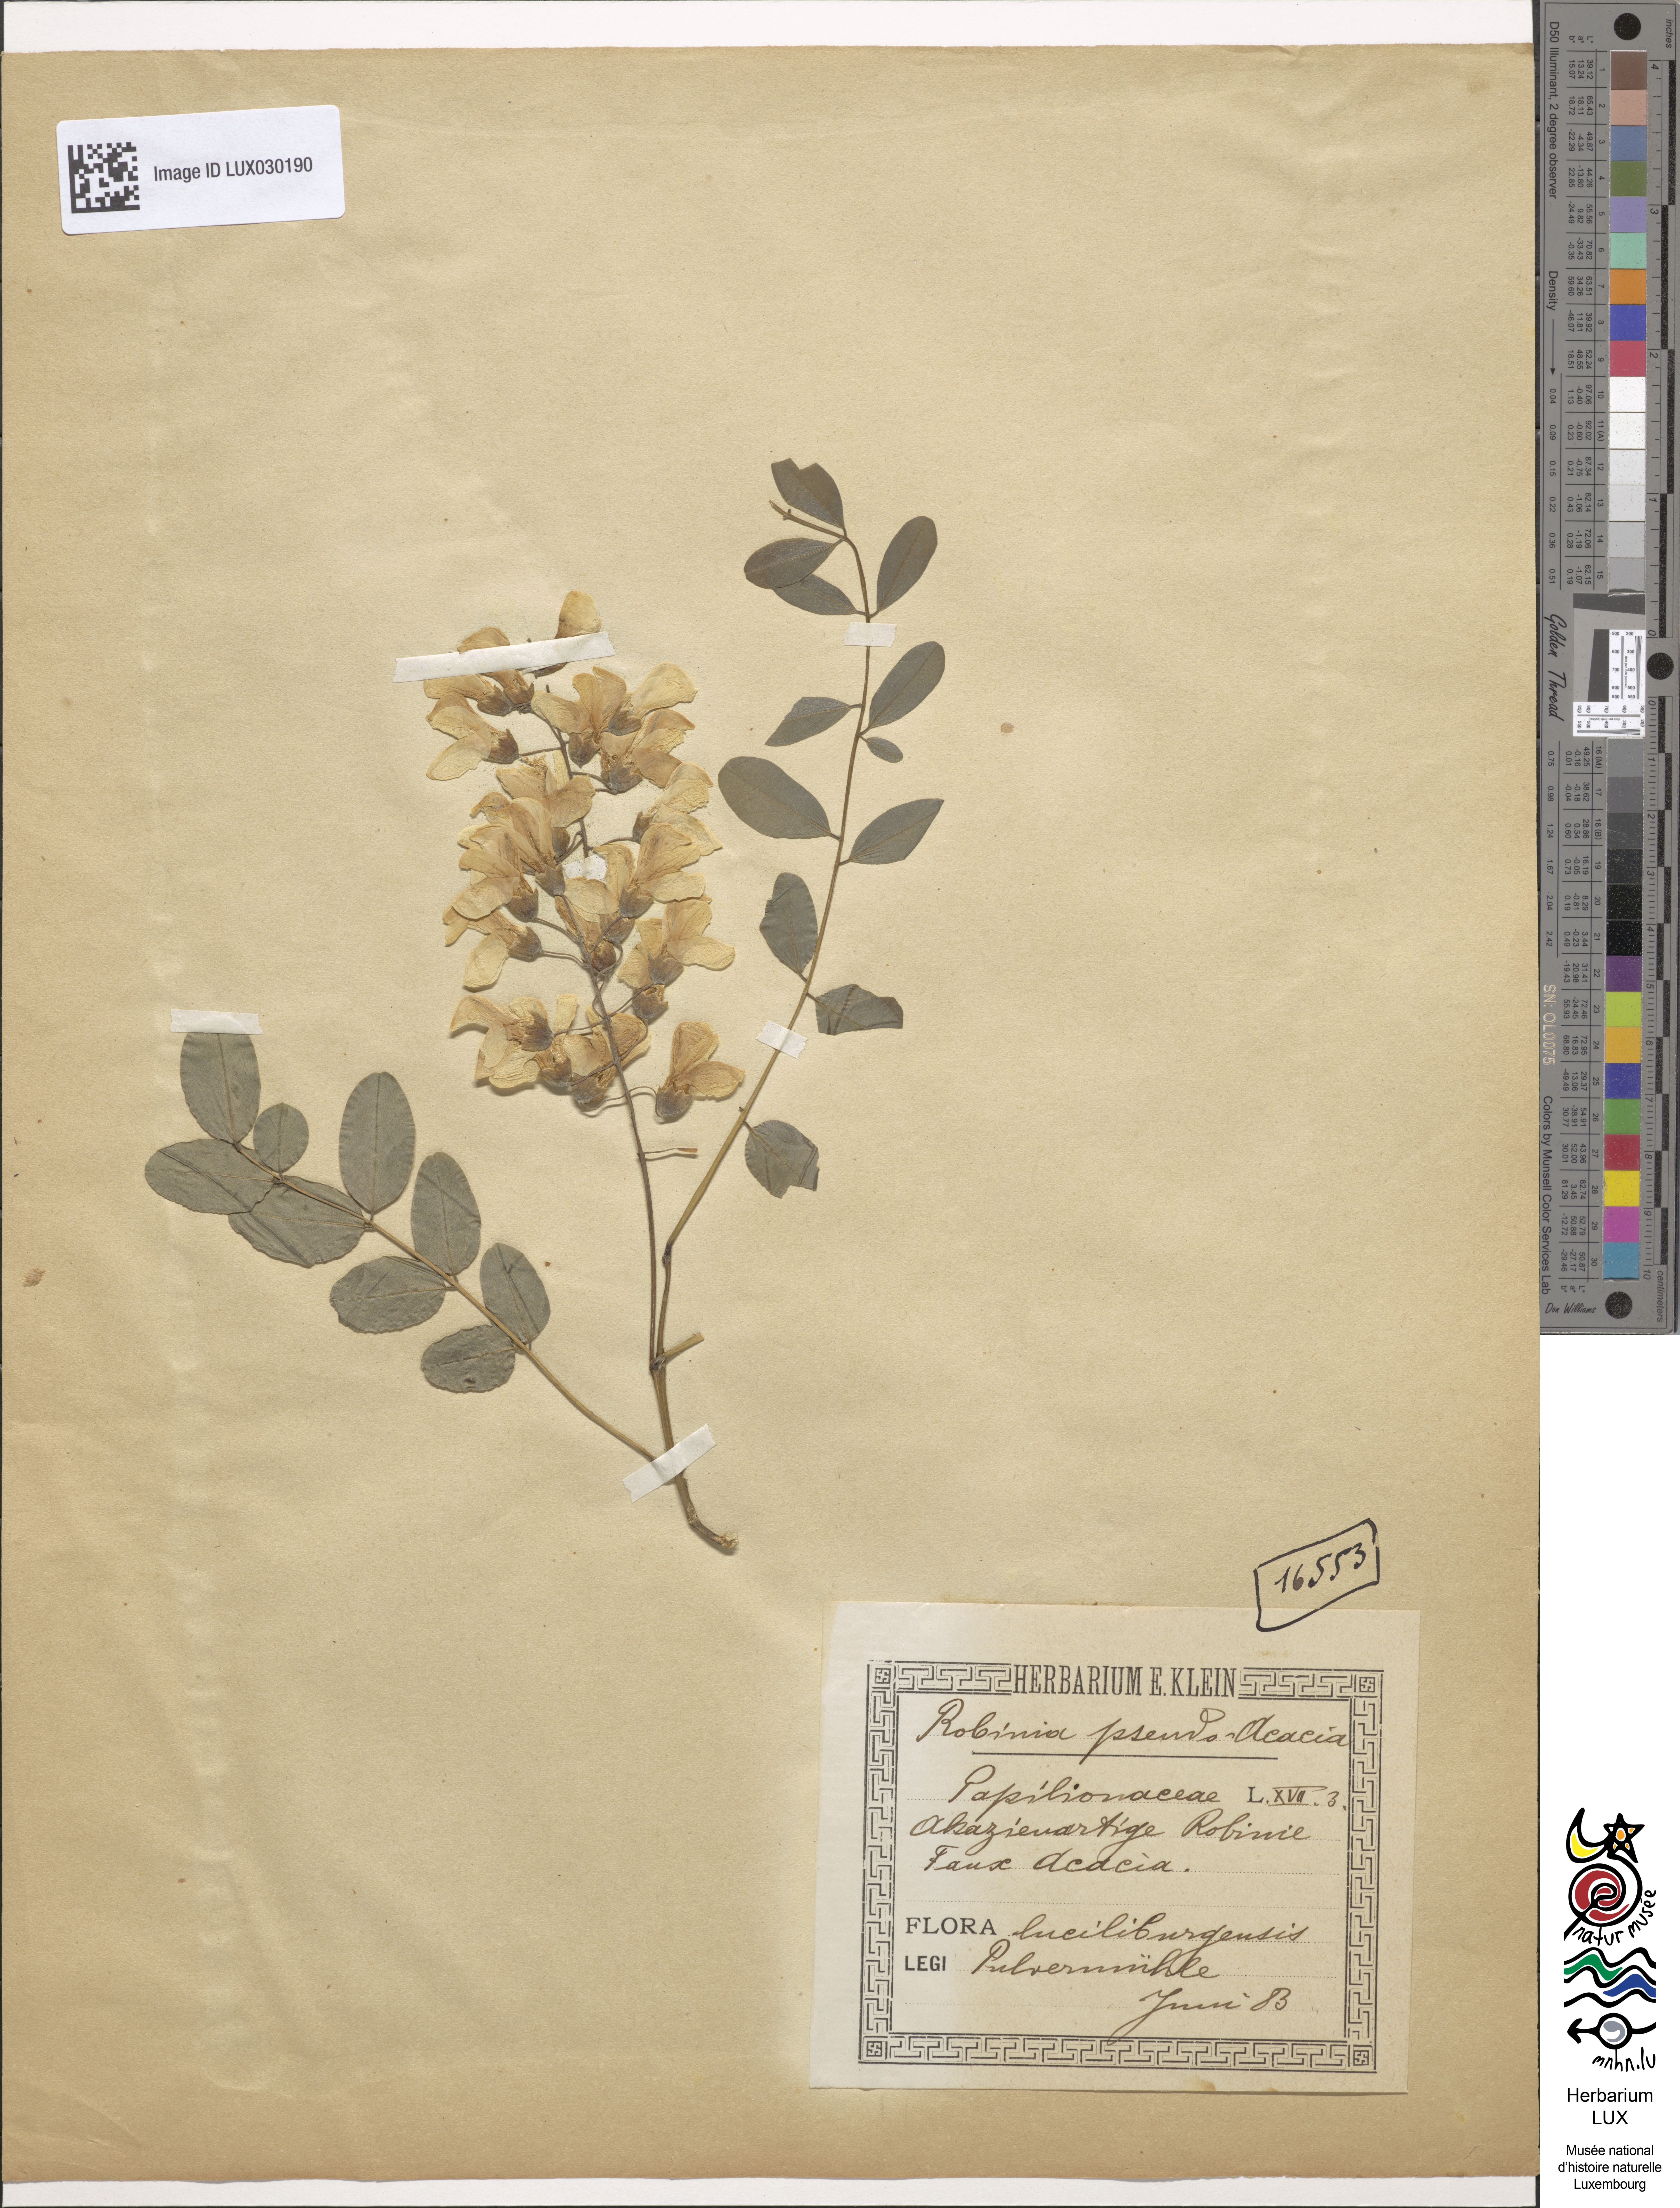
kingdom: Plantae
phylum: Tracheophyta
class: Magnoliopsida
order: Fabales
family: Fabaceae
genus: Robinia
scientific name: Robinia pseudoacacia
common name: Black locust
